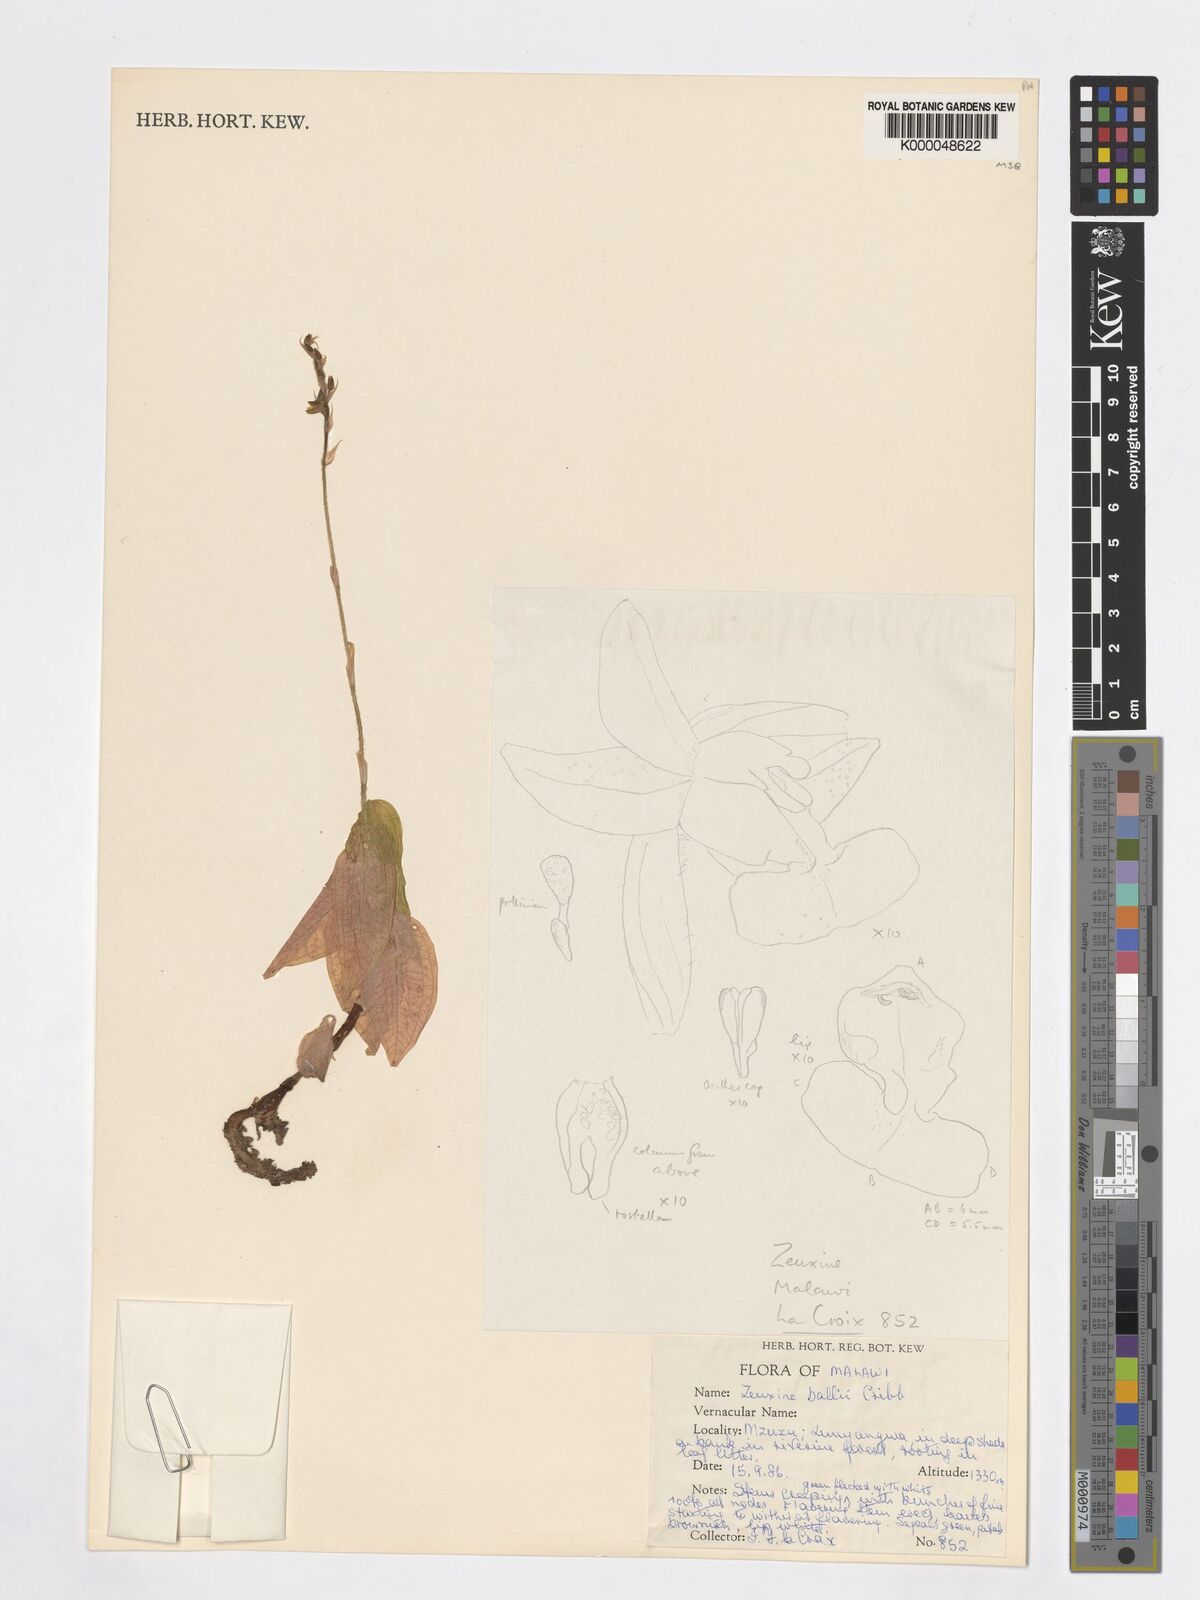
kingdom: Plantae
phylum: Tracheophyta
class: Liliopsida
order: Asparagales
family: Orchidaceae
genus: Zeuxine
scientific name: Zeuxine ballii
